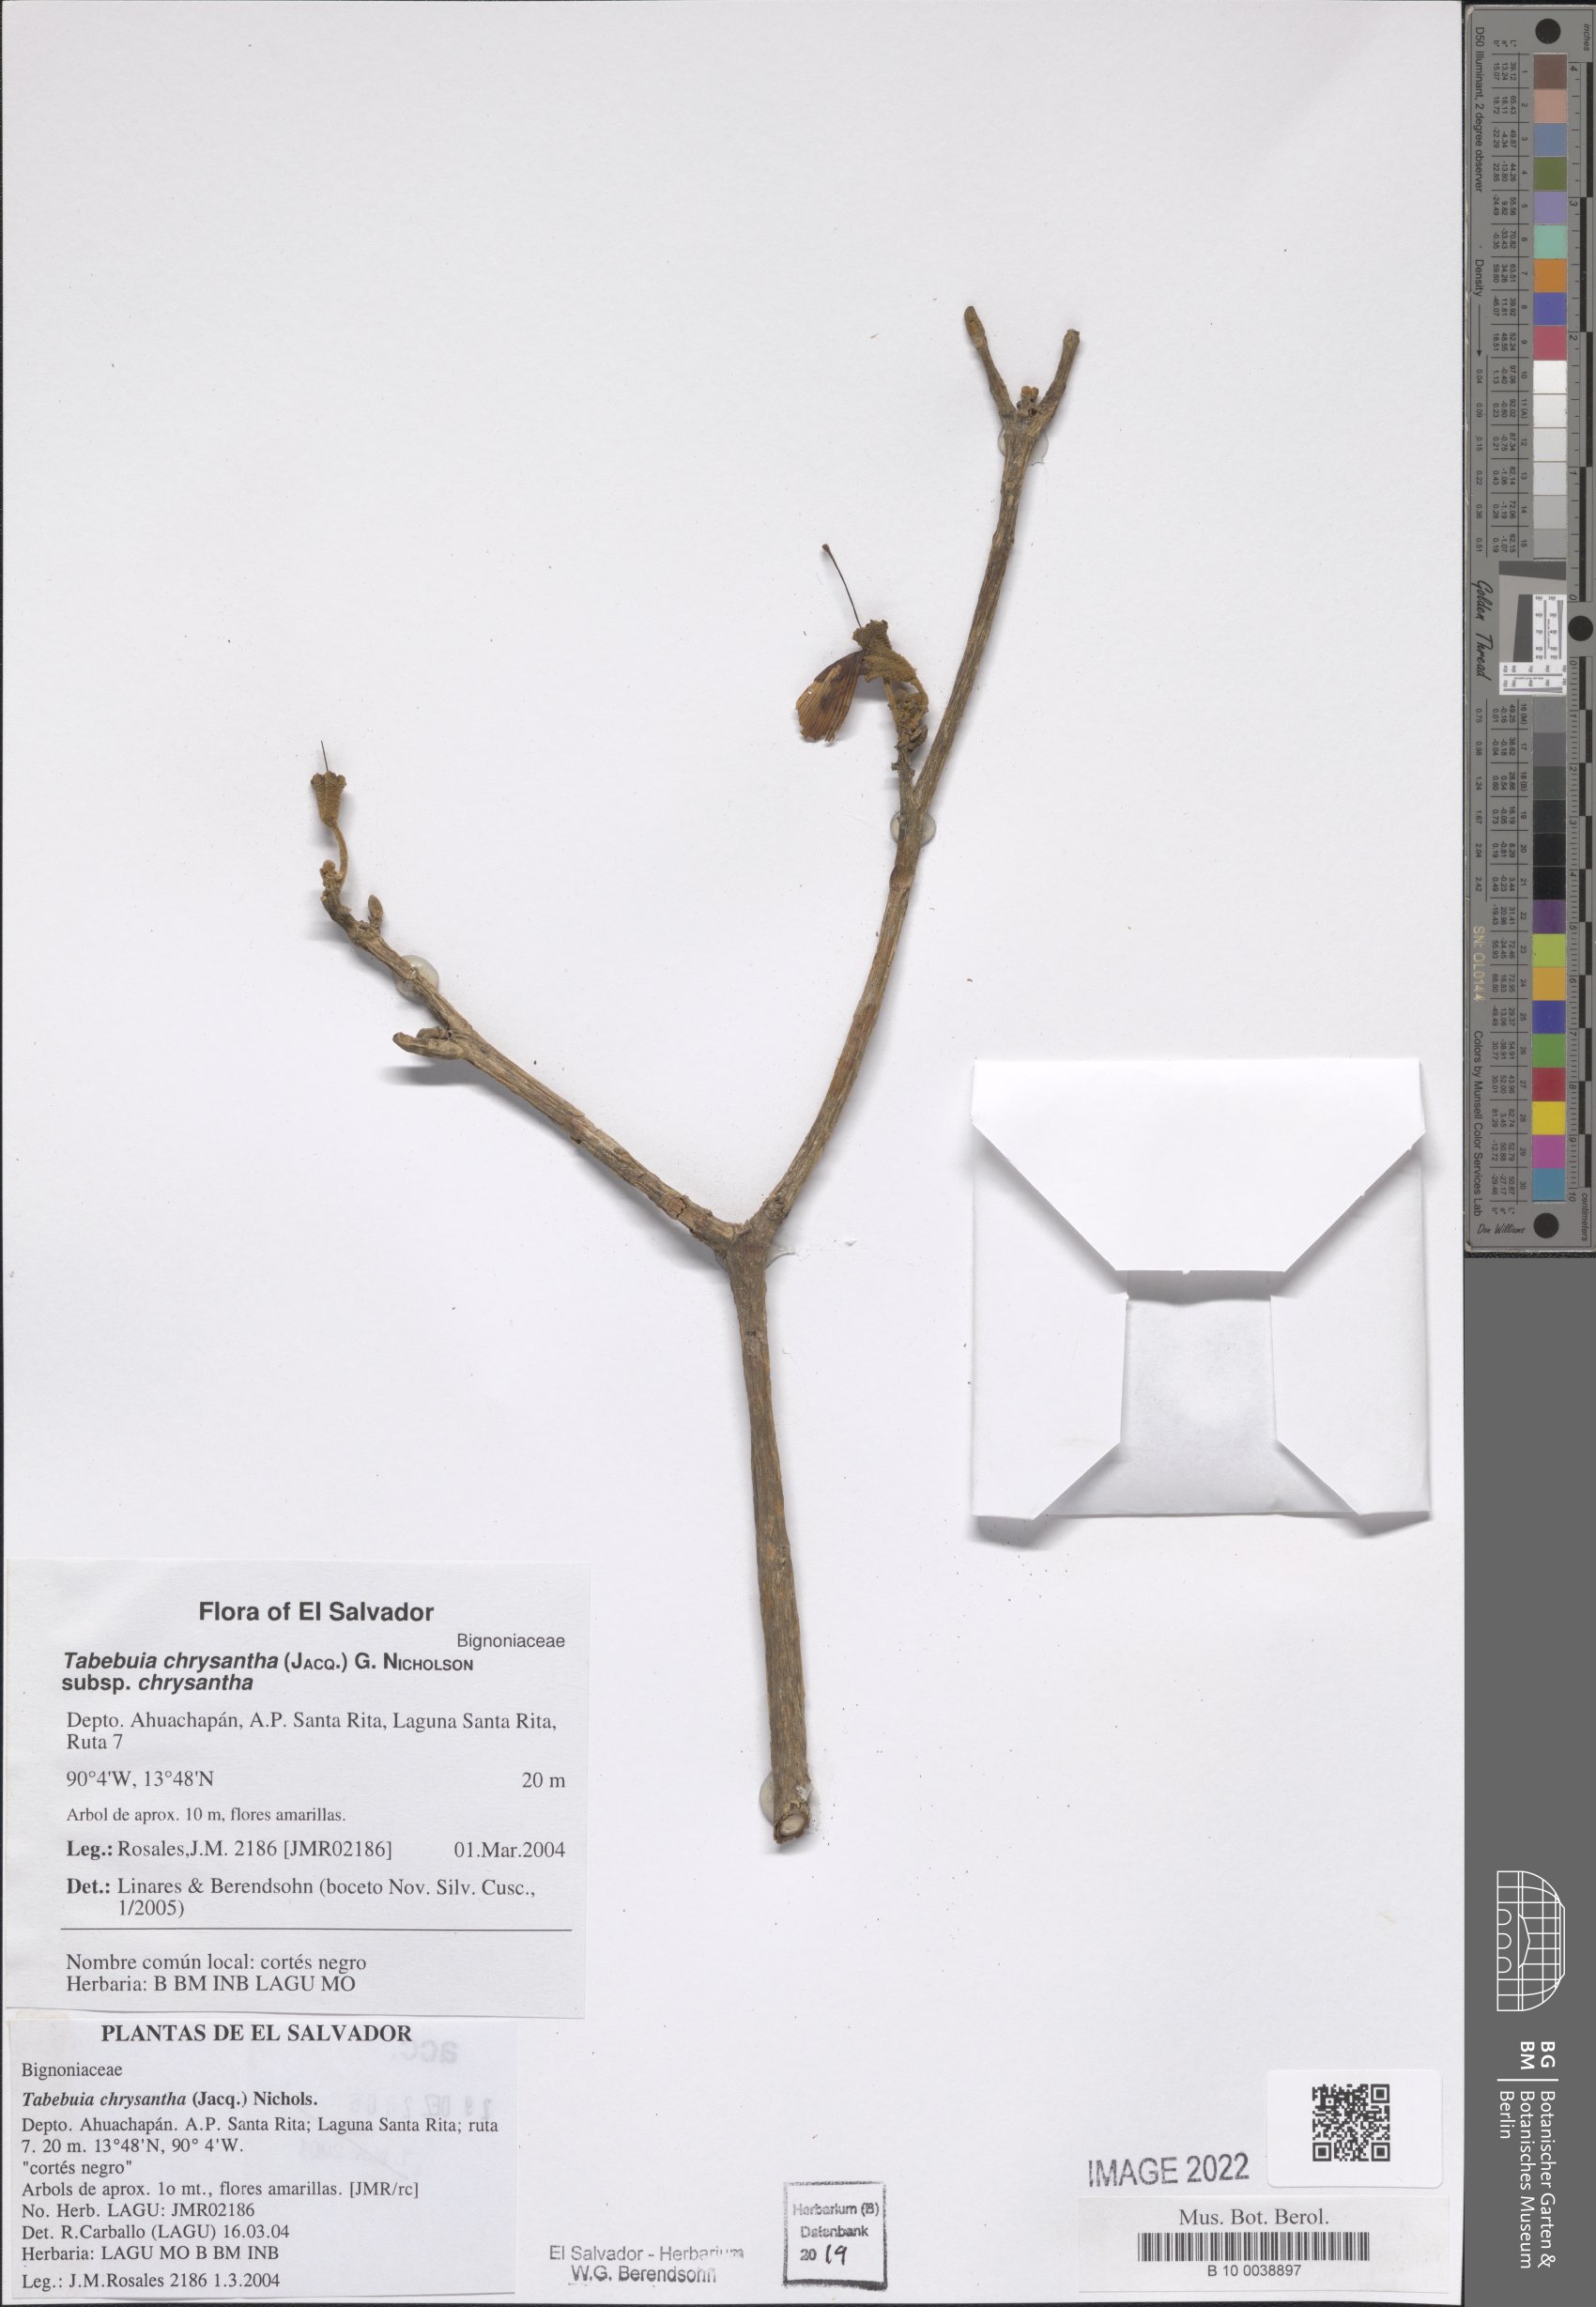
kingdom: Plantae
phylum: Tracheophyta
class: Magnoliopsida
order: Lamiales
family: Bignoniaceae
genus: Handroanthus
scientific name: Handroanthus chrysanthus
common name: Trumpet trees
